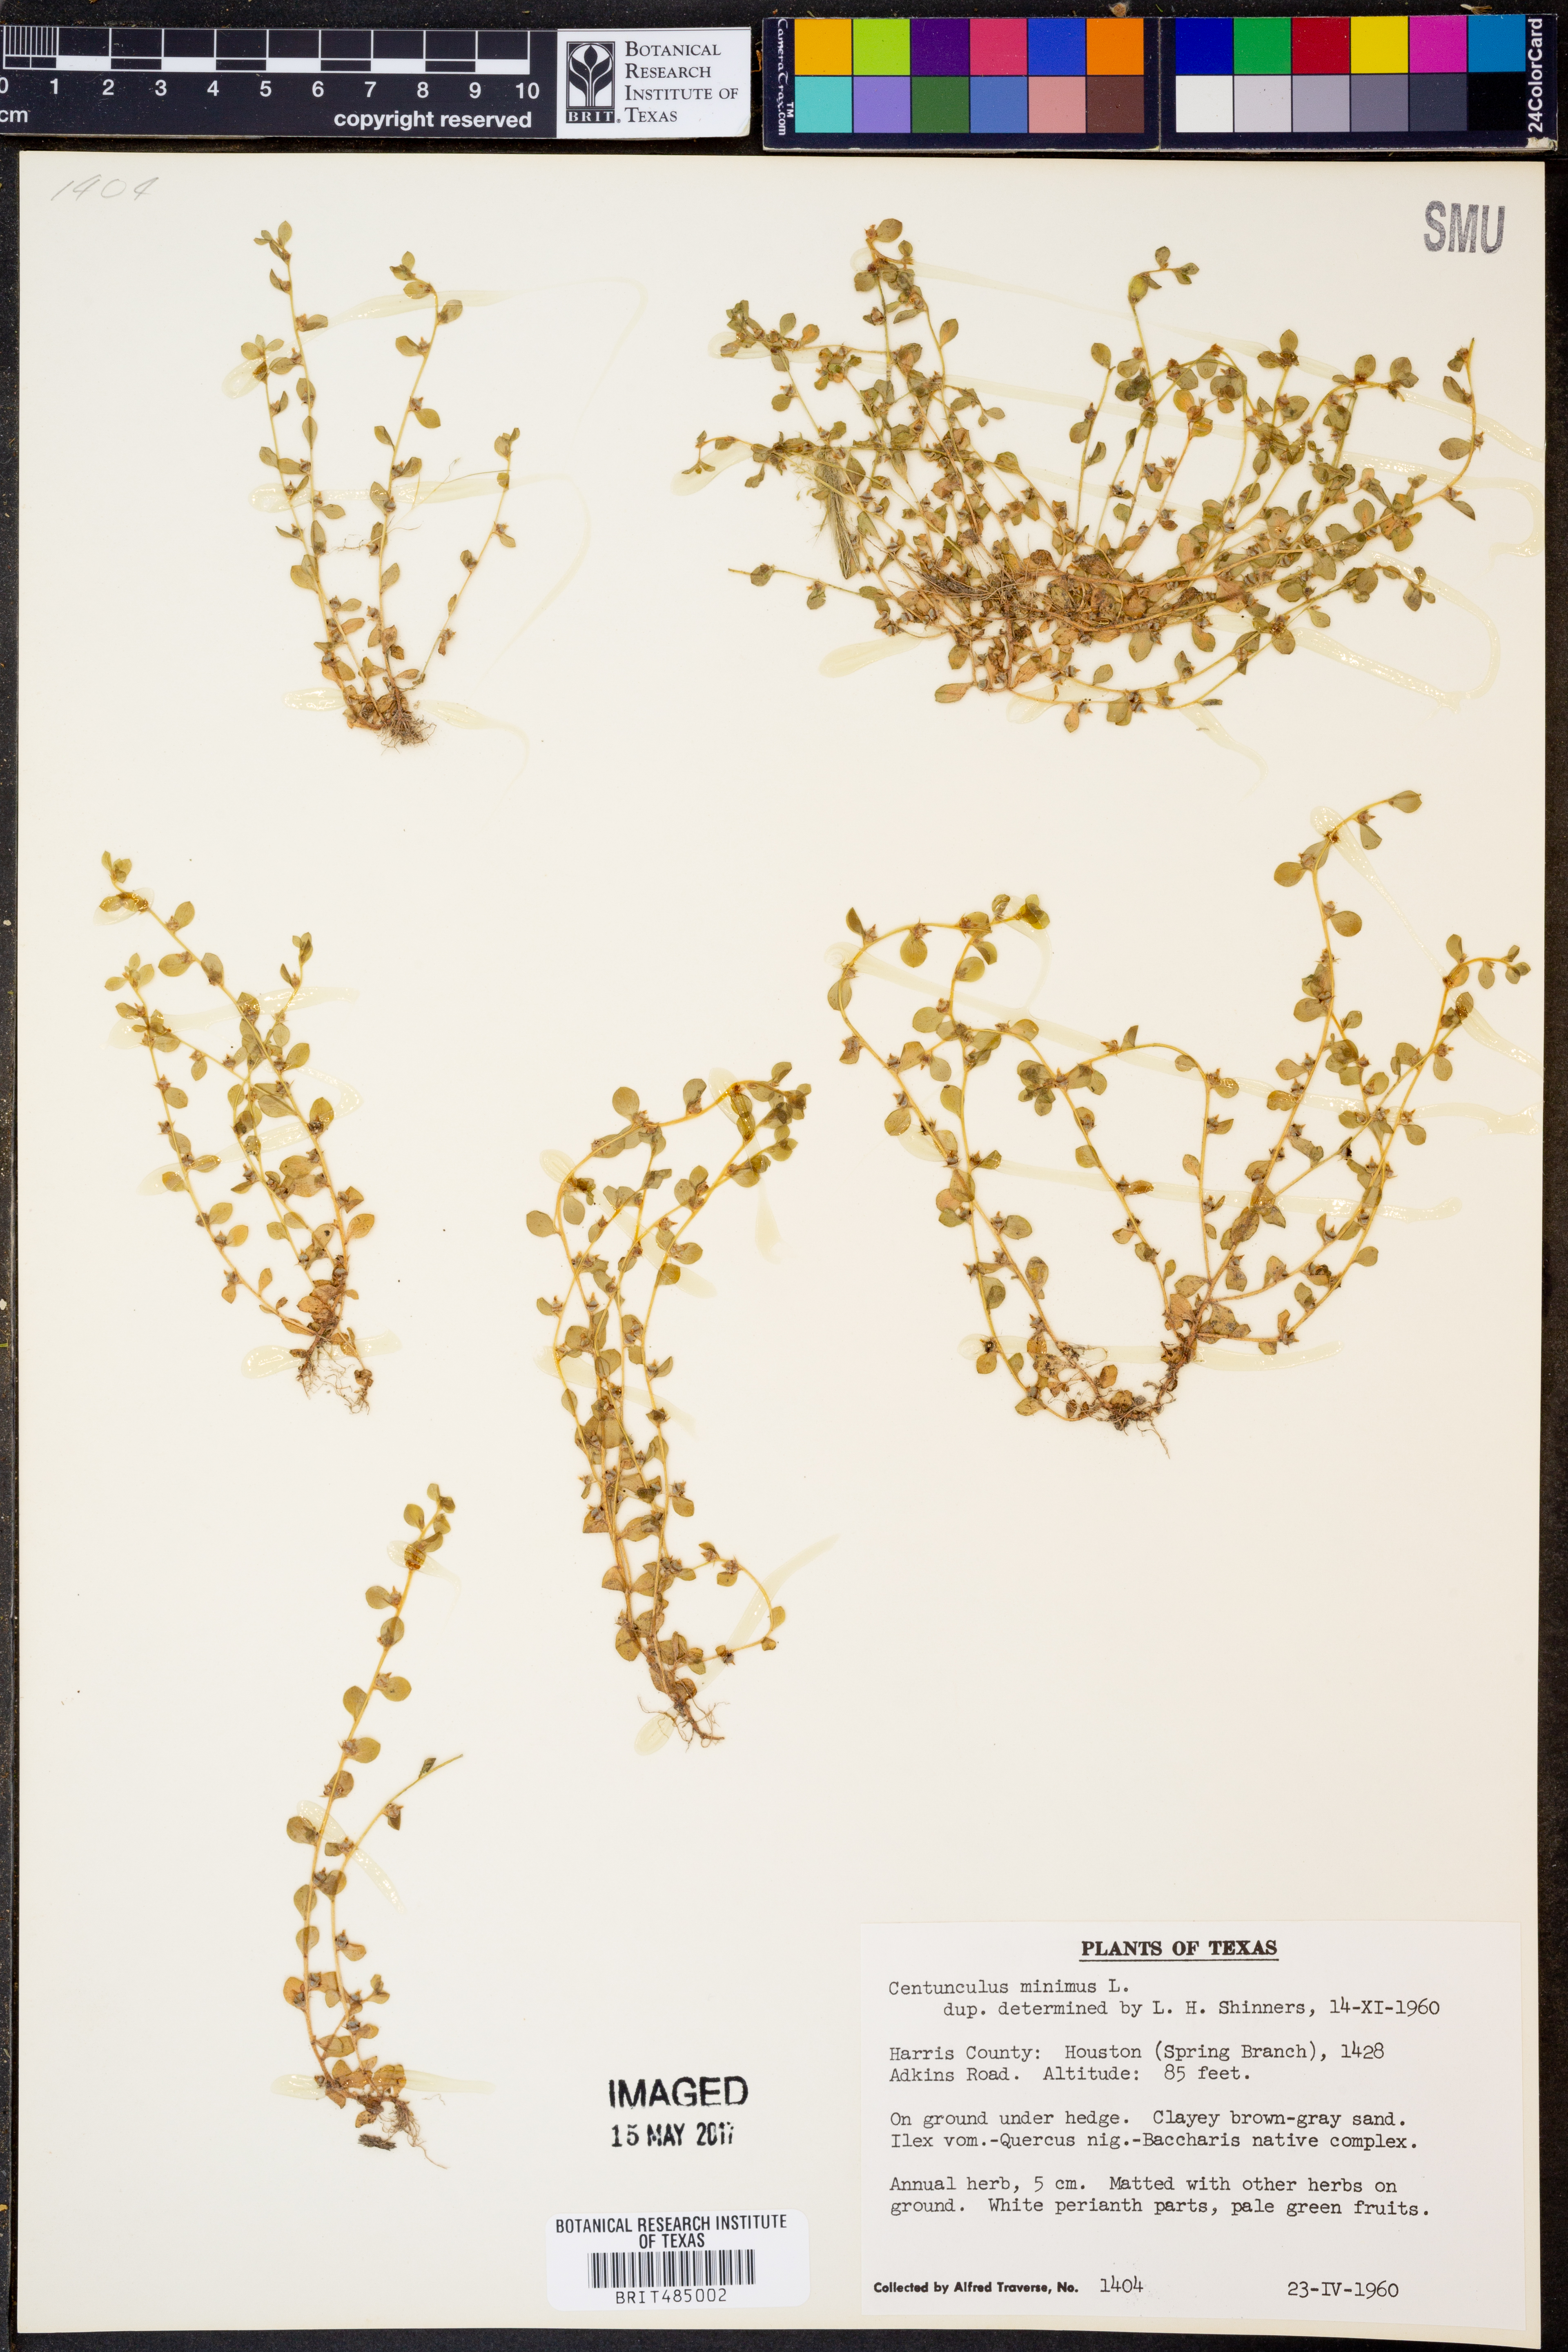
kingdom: Plantae
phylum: Tracheophyta
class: Magnoliopsida
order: Ericales
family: Primulaceae
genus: Lysimachia
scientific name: Lysimachia minima
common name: Chaffweed
